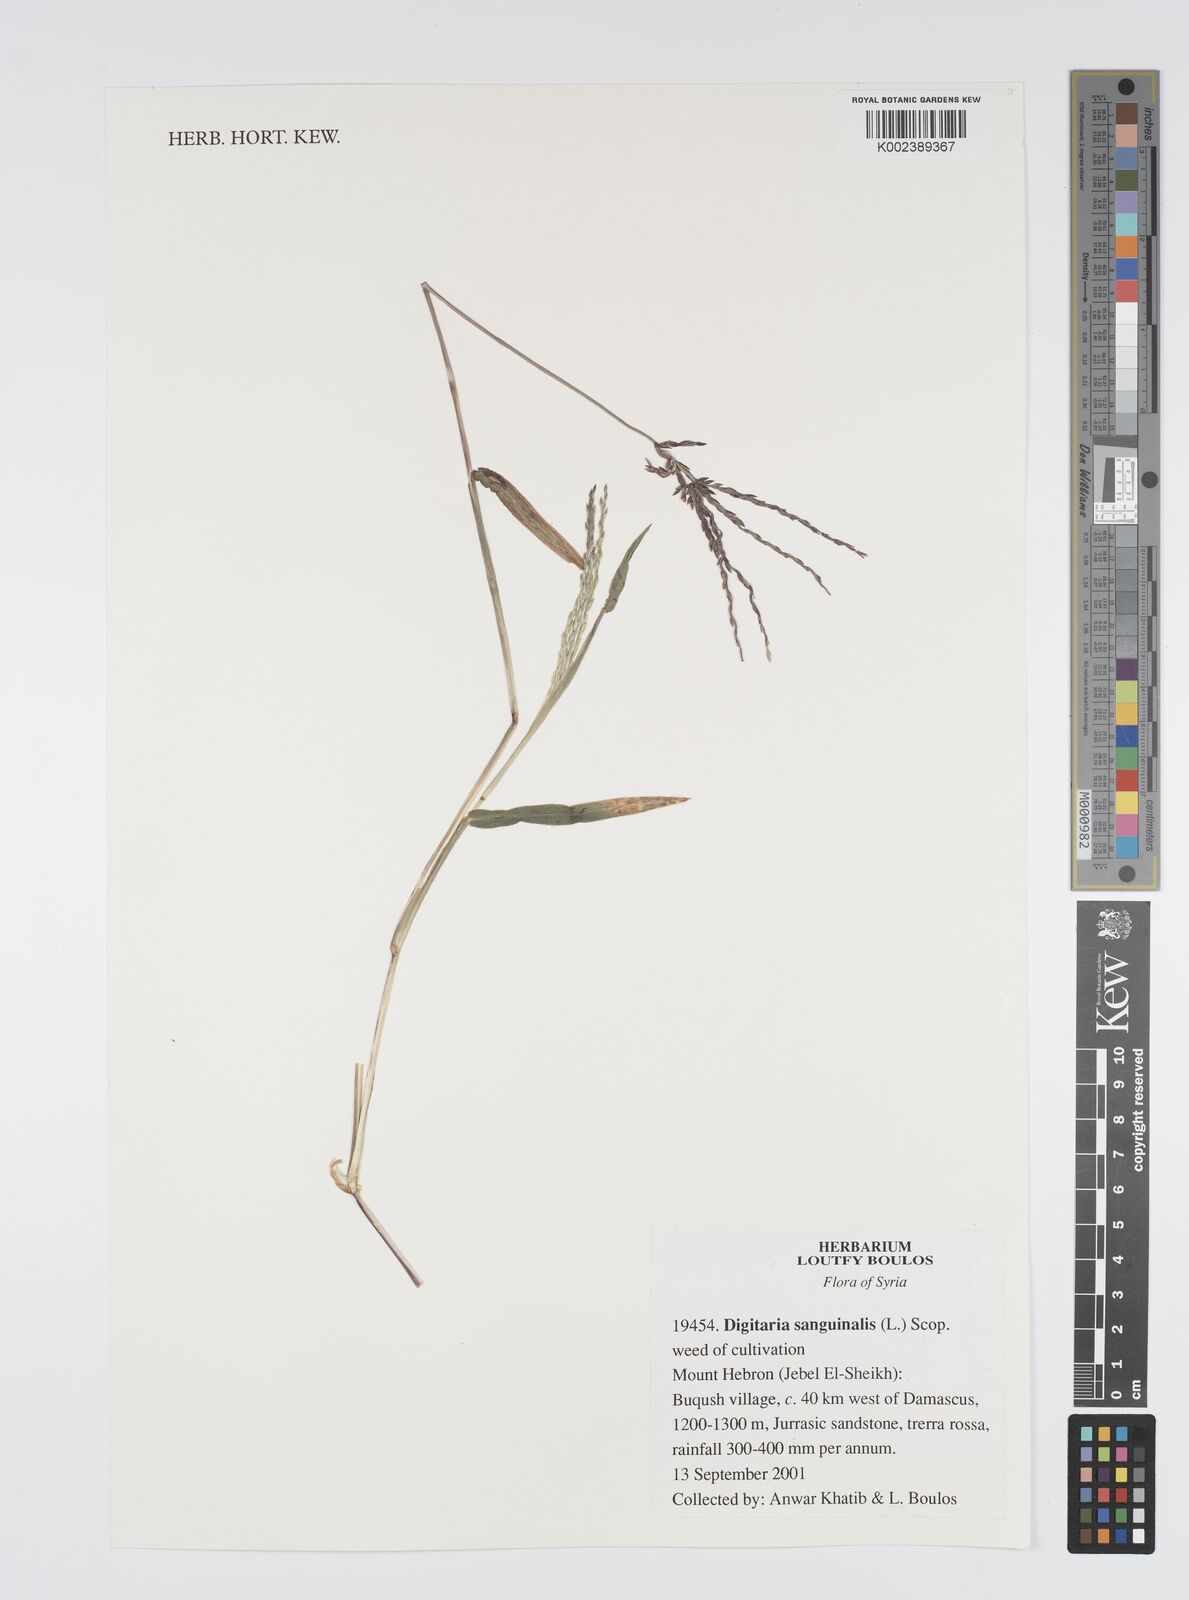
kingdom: Plantae
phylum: Tracheophyta
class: Liliopsida
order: Poales
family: Poaceae
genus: Digitaria
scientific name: Digitaria sanguinalis
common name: Hairy crabgrass
